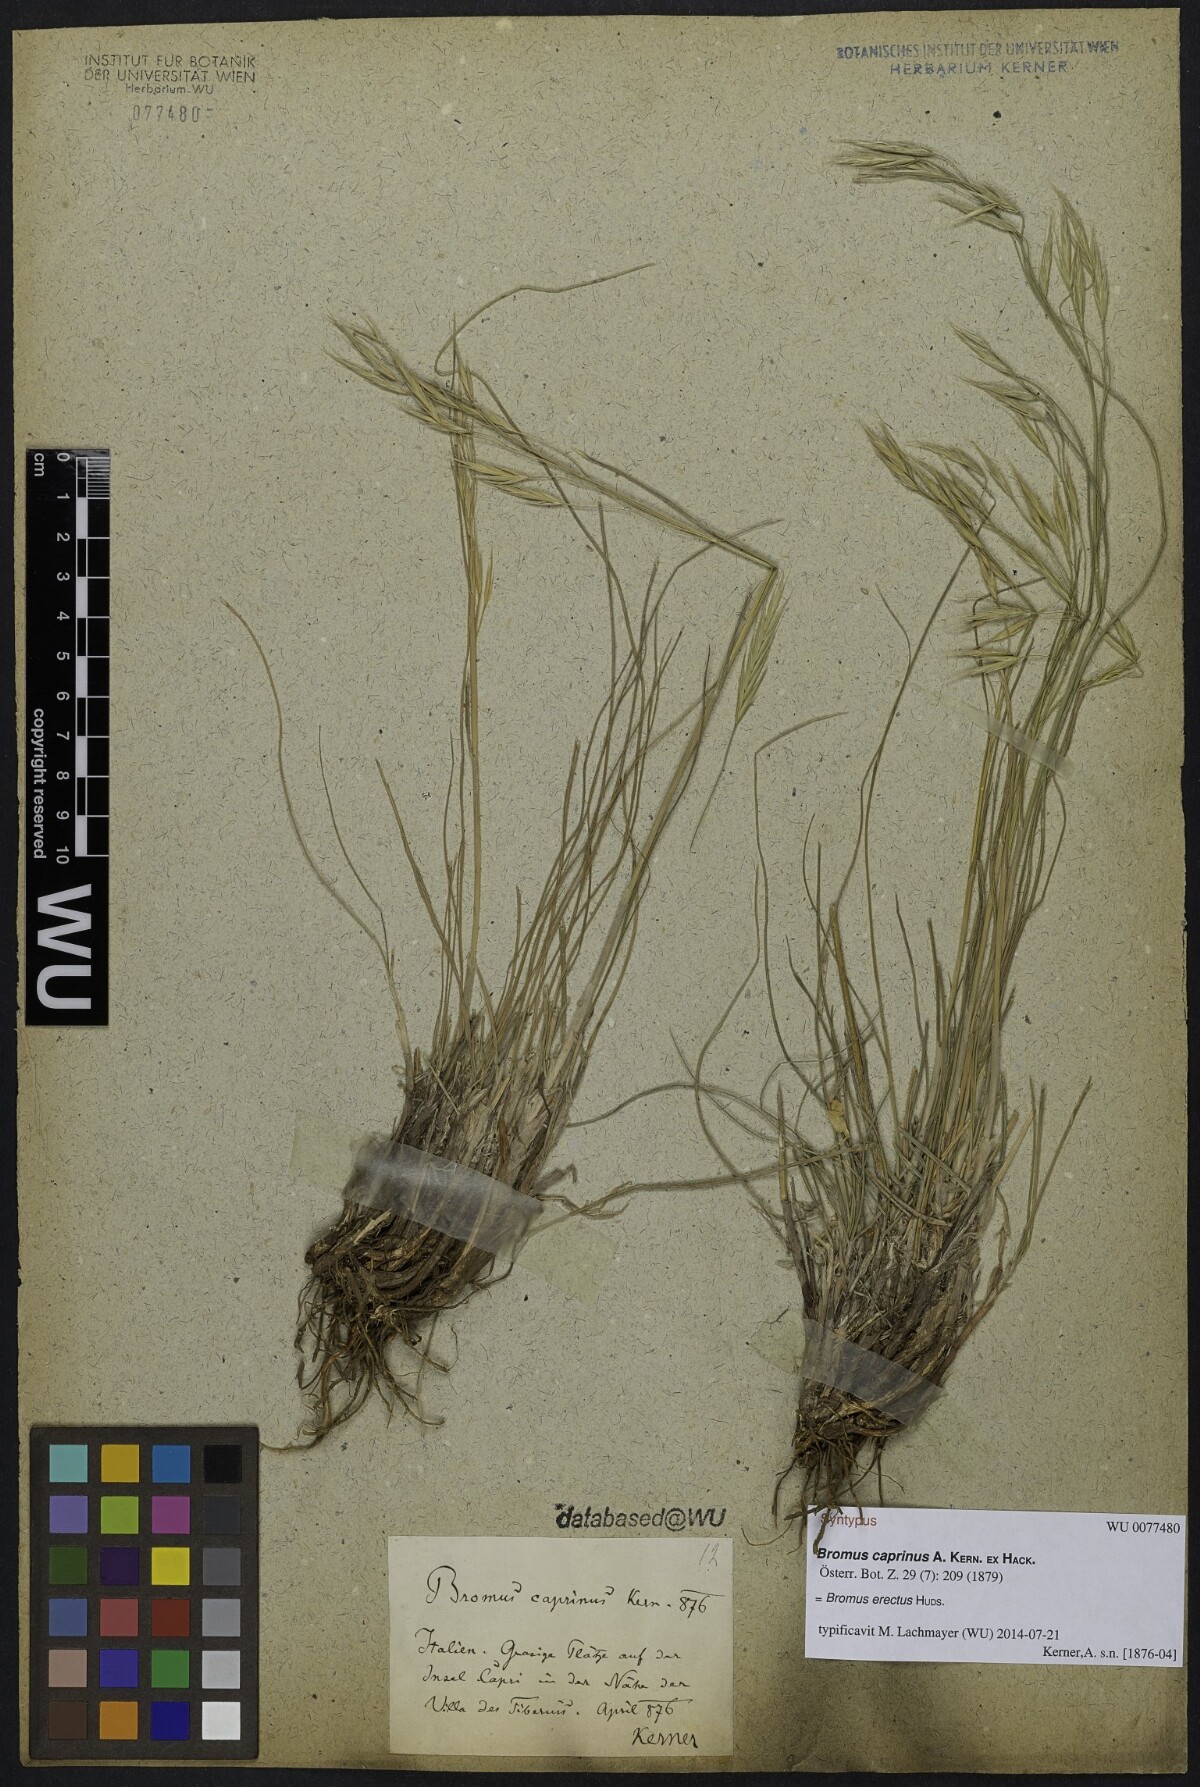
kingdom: Plantae
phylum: Tracheophyta
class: Liliopsida
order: Poales
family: Poaceae
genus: Bromus
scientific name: Bromus erectus
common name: Erect brome
